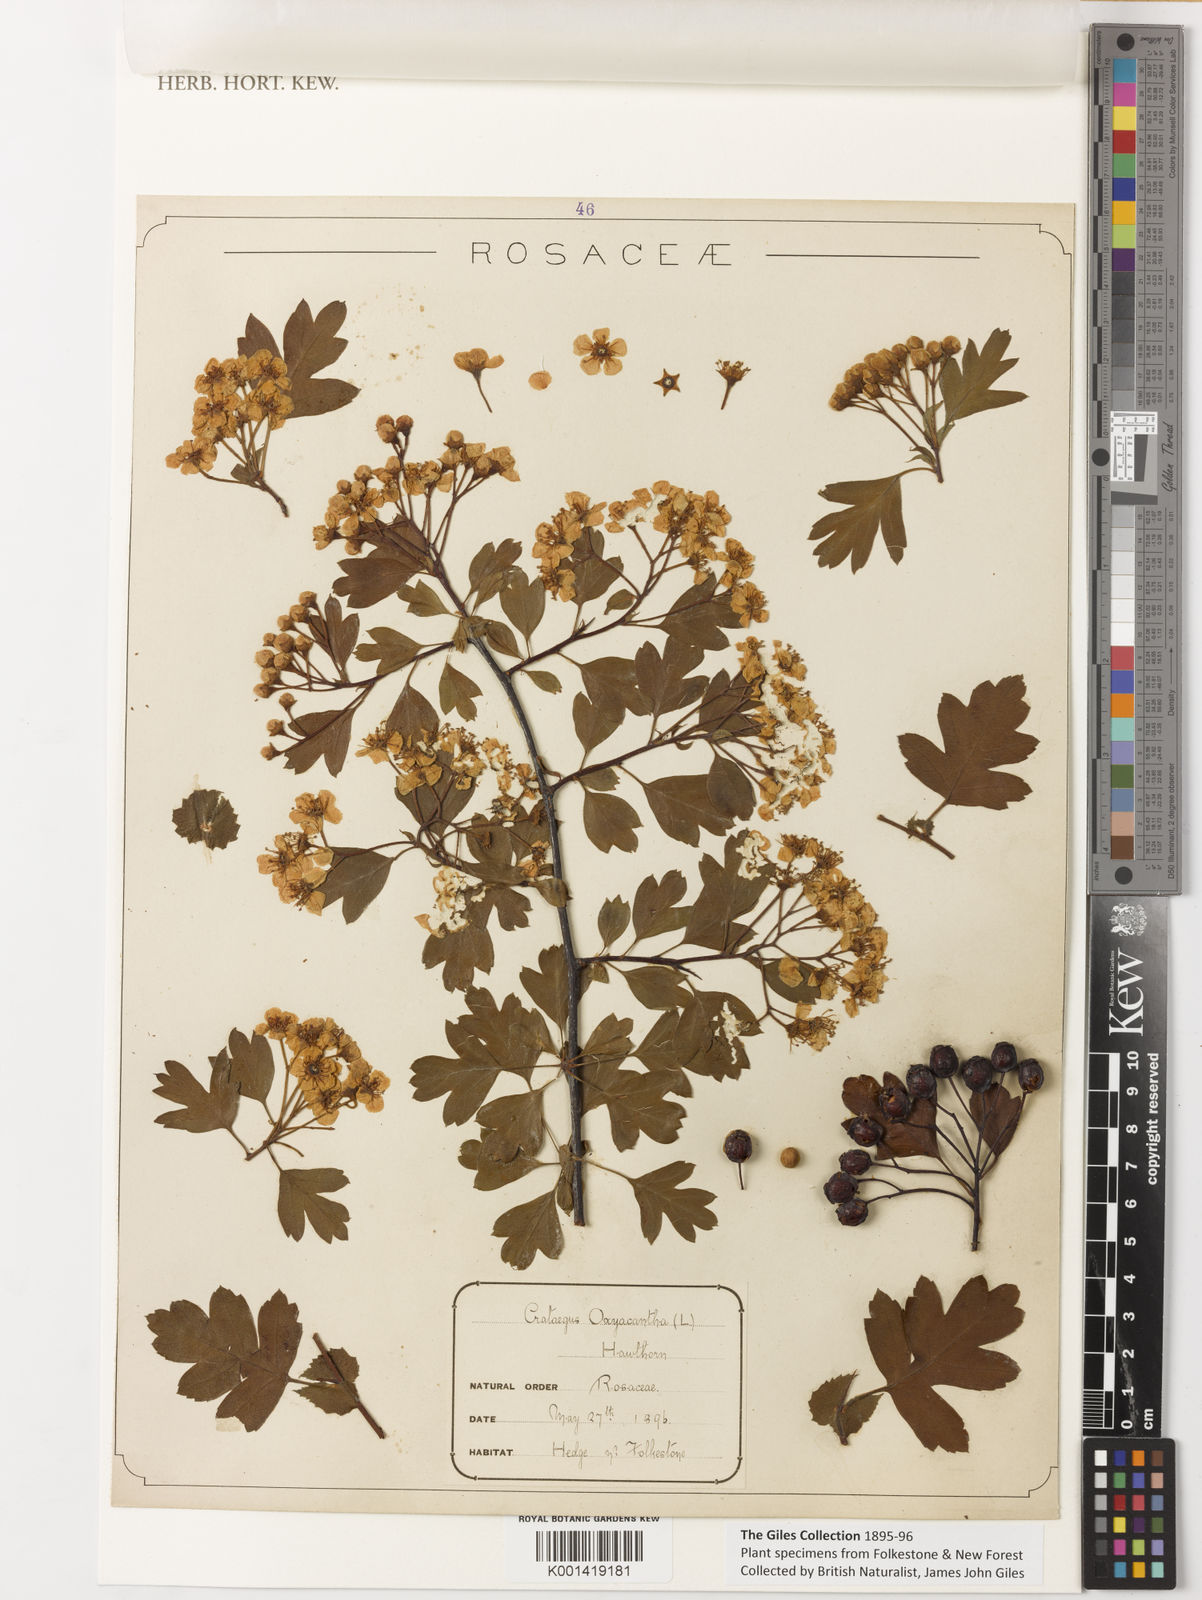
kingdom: Plantae
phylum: Tracheophyta
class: Magnoliopsida
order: Rosales
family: Rosaceae
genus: Crataegus
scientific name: Crataegus monogyna
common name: Hawthorn
